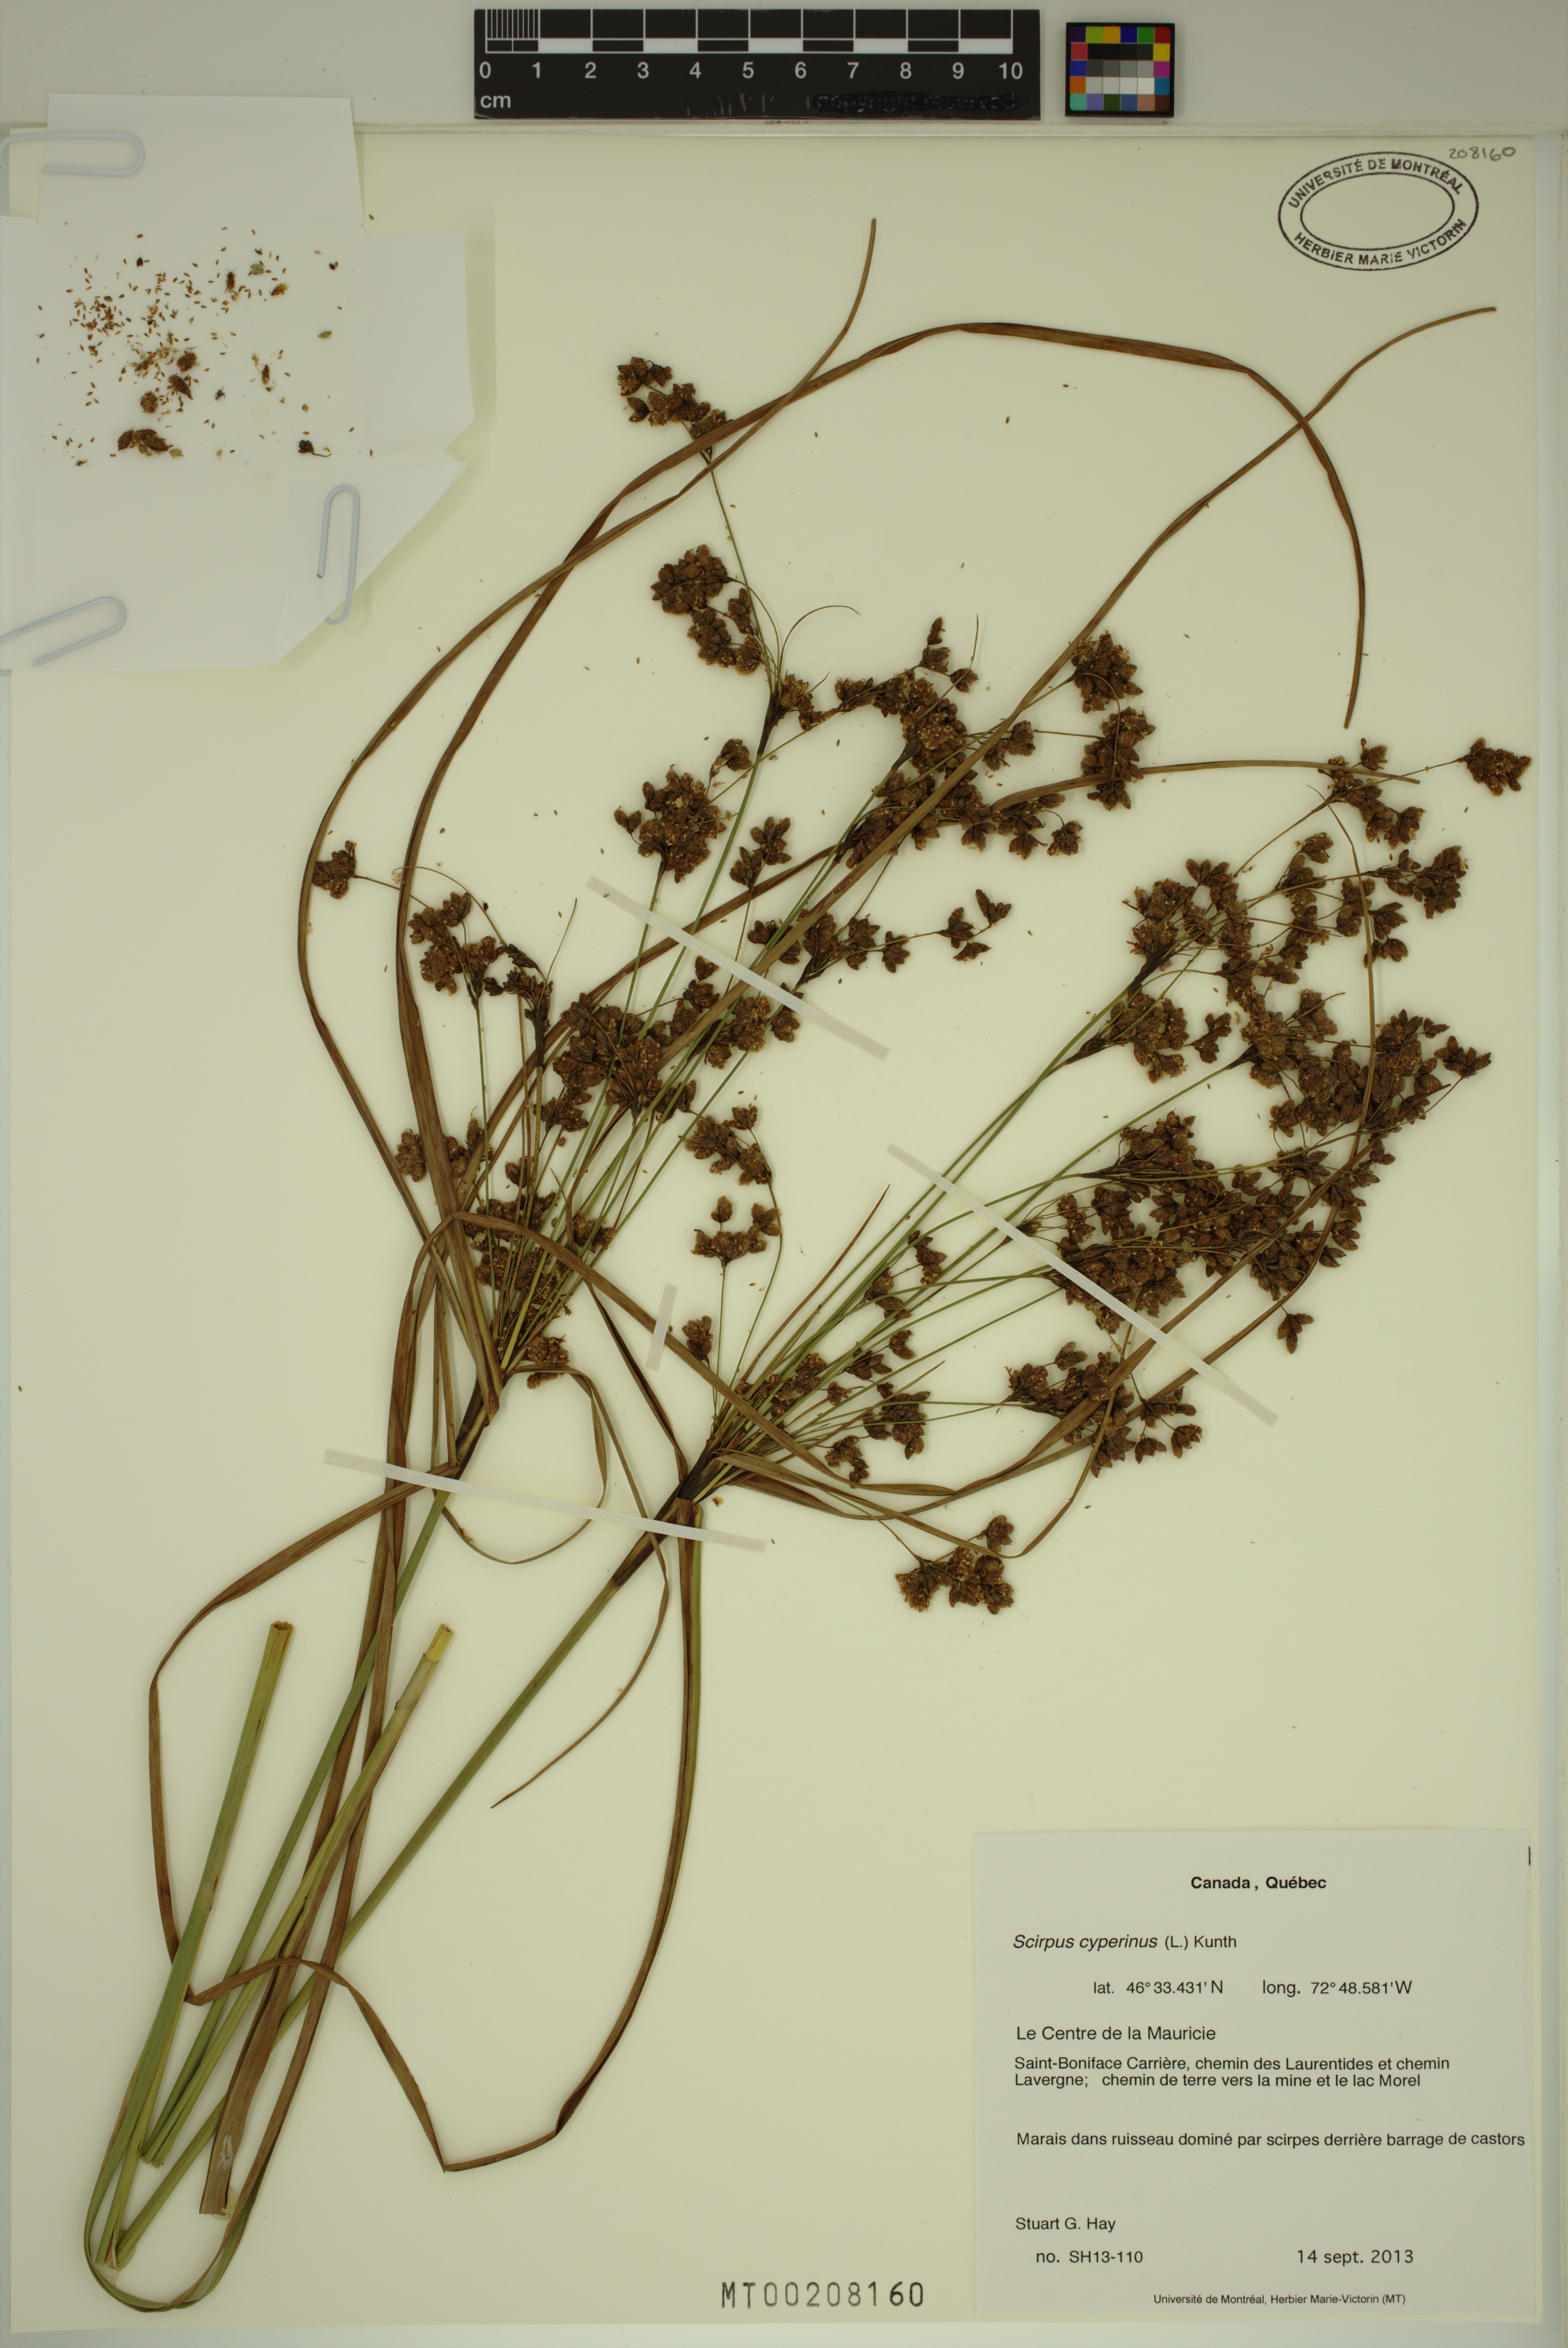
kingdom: Plantae
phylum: Tracheophyta
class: Liliopsida
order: Poales
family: Cyperaceae
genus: Scirpus
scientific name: Scirpus cyperinus
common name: Black-sheathed bulrush
